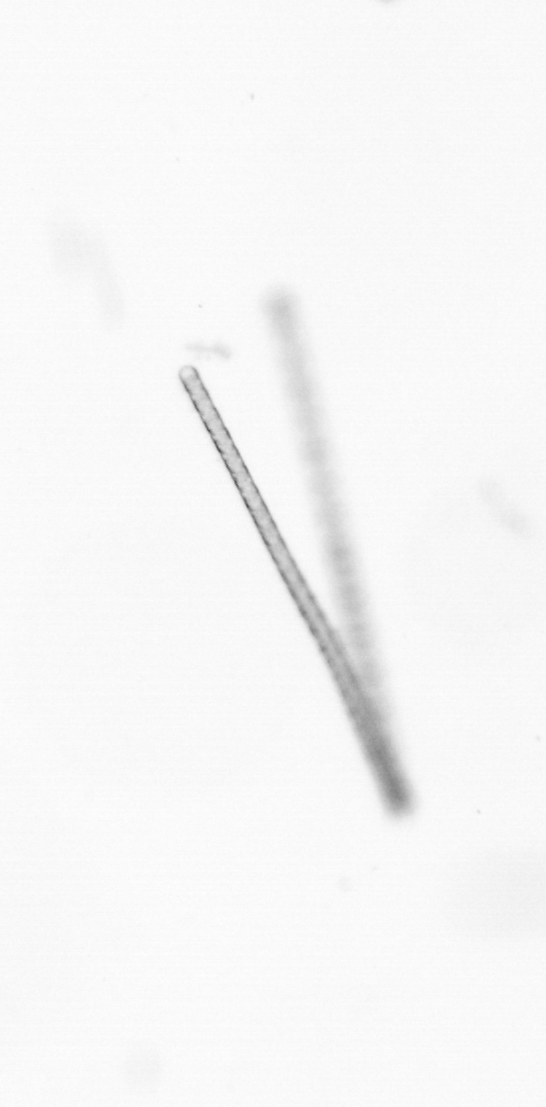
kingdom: Chromista
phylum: Ochrophyta
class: Bacillariophyceae
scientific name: Bacillariophyceae
